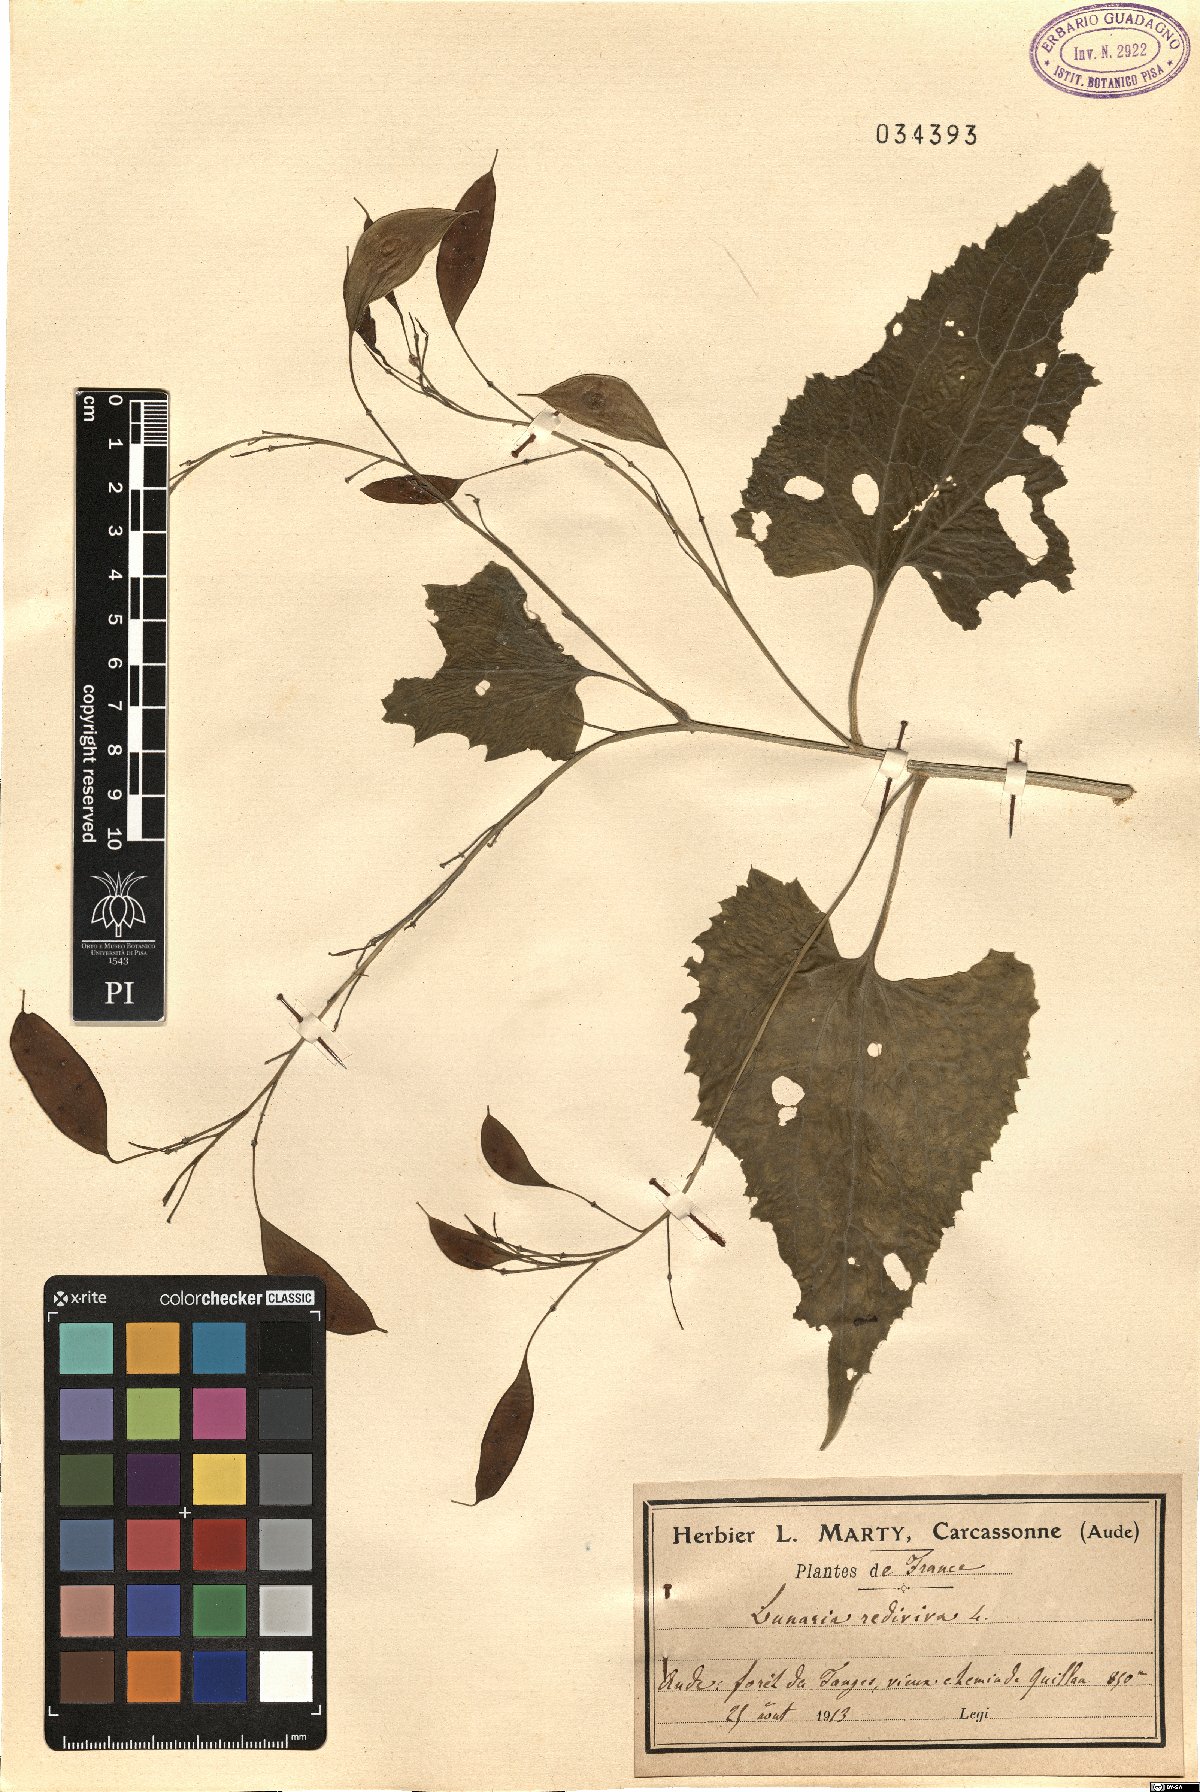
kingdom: Plantae
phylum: Tracheophyta
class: Magnoliopsida
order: Brassicales
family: Brassicaceae
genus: Lunaria
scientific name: Lunaria rediviva
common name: Perennial honesty
